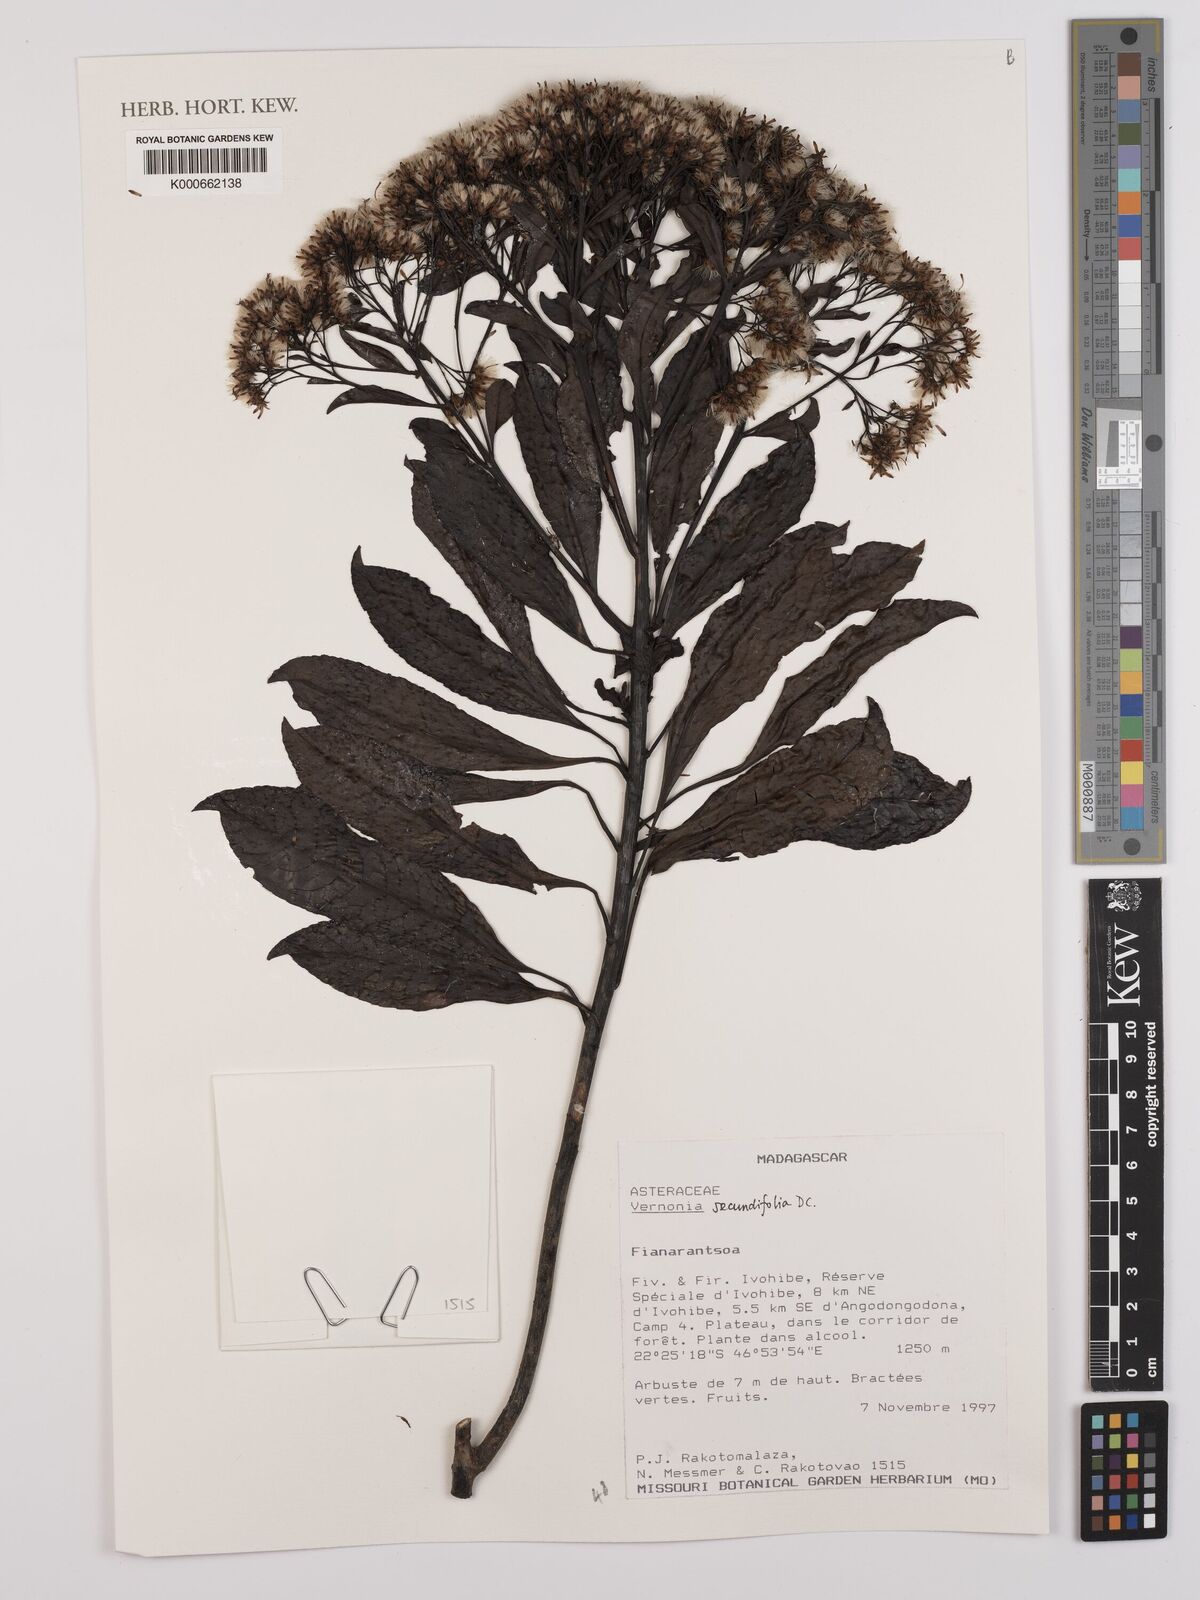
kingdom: Plantae
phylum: Tracheophyta
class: Magnoliopsida
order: Asterales
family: Asteraceae
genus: Gymnanthemum
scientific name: Gymnanthemum secundifolium
